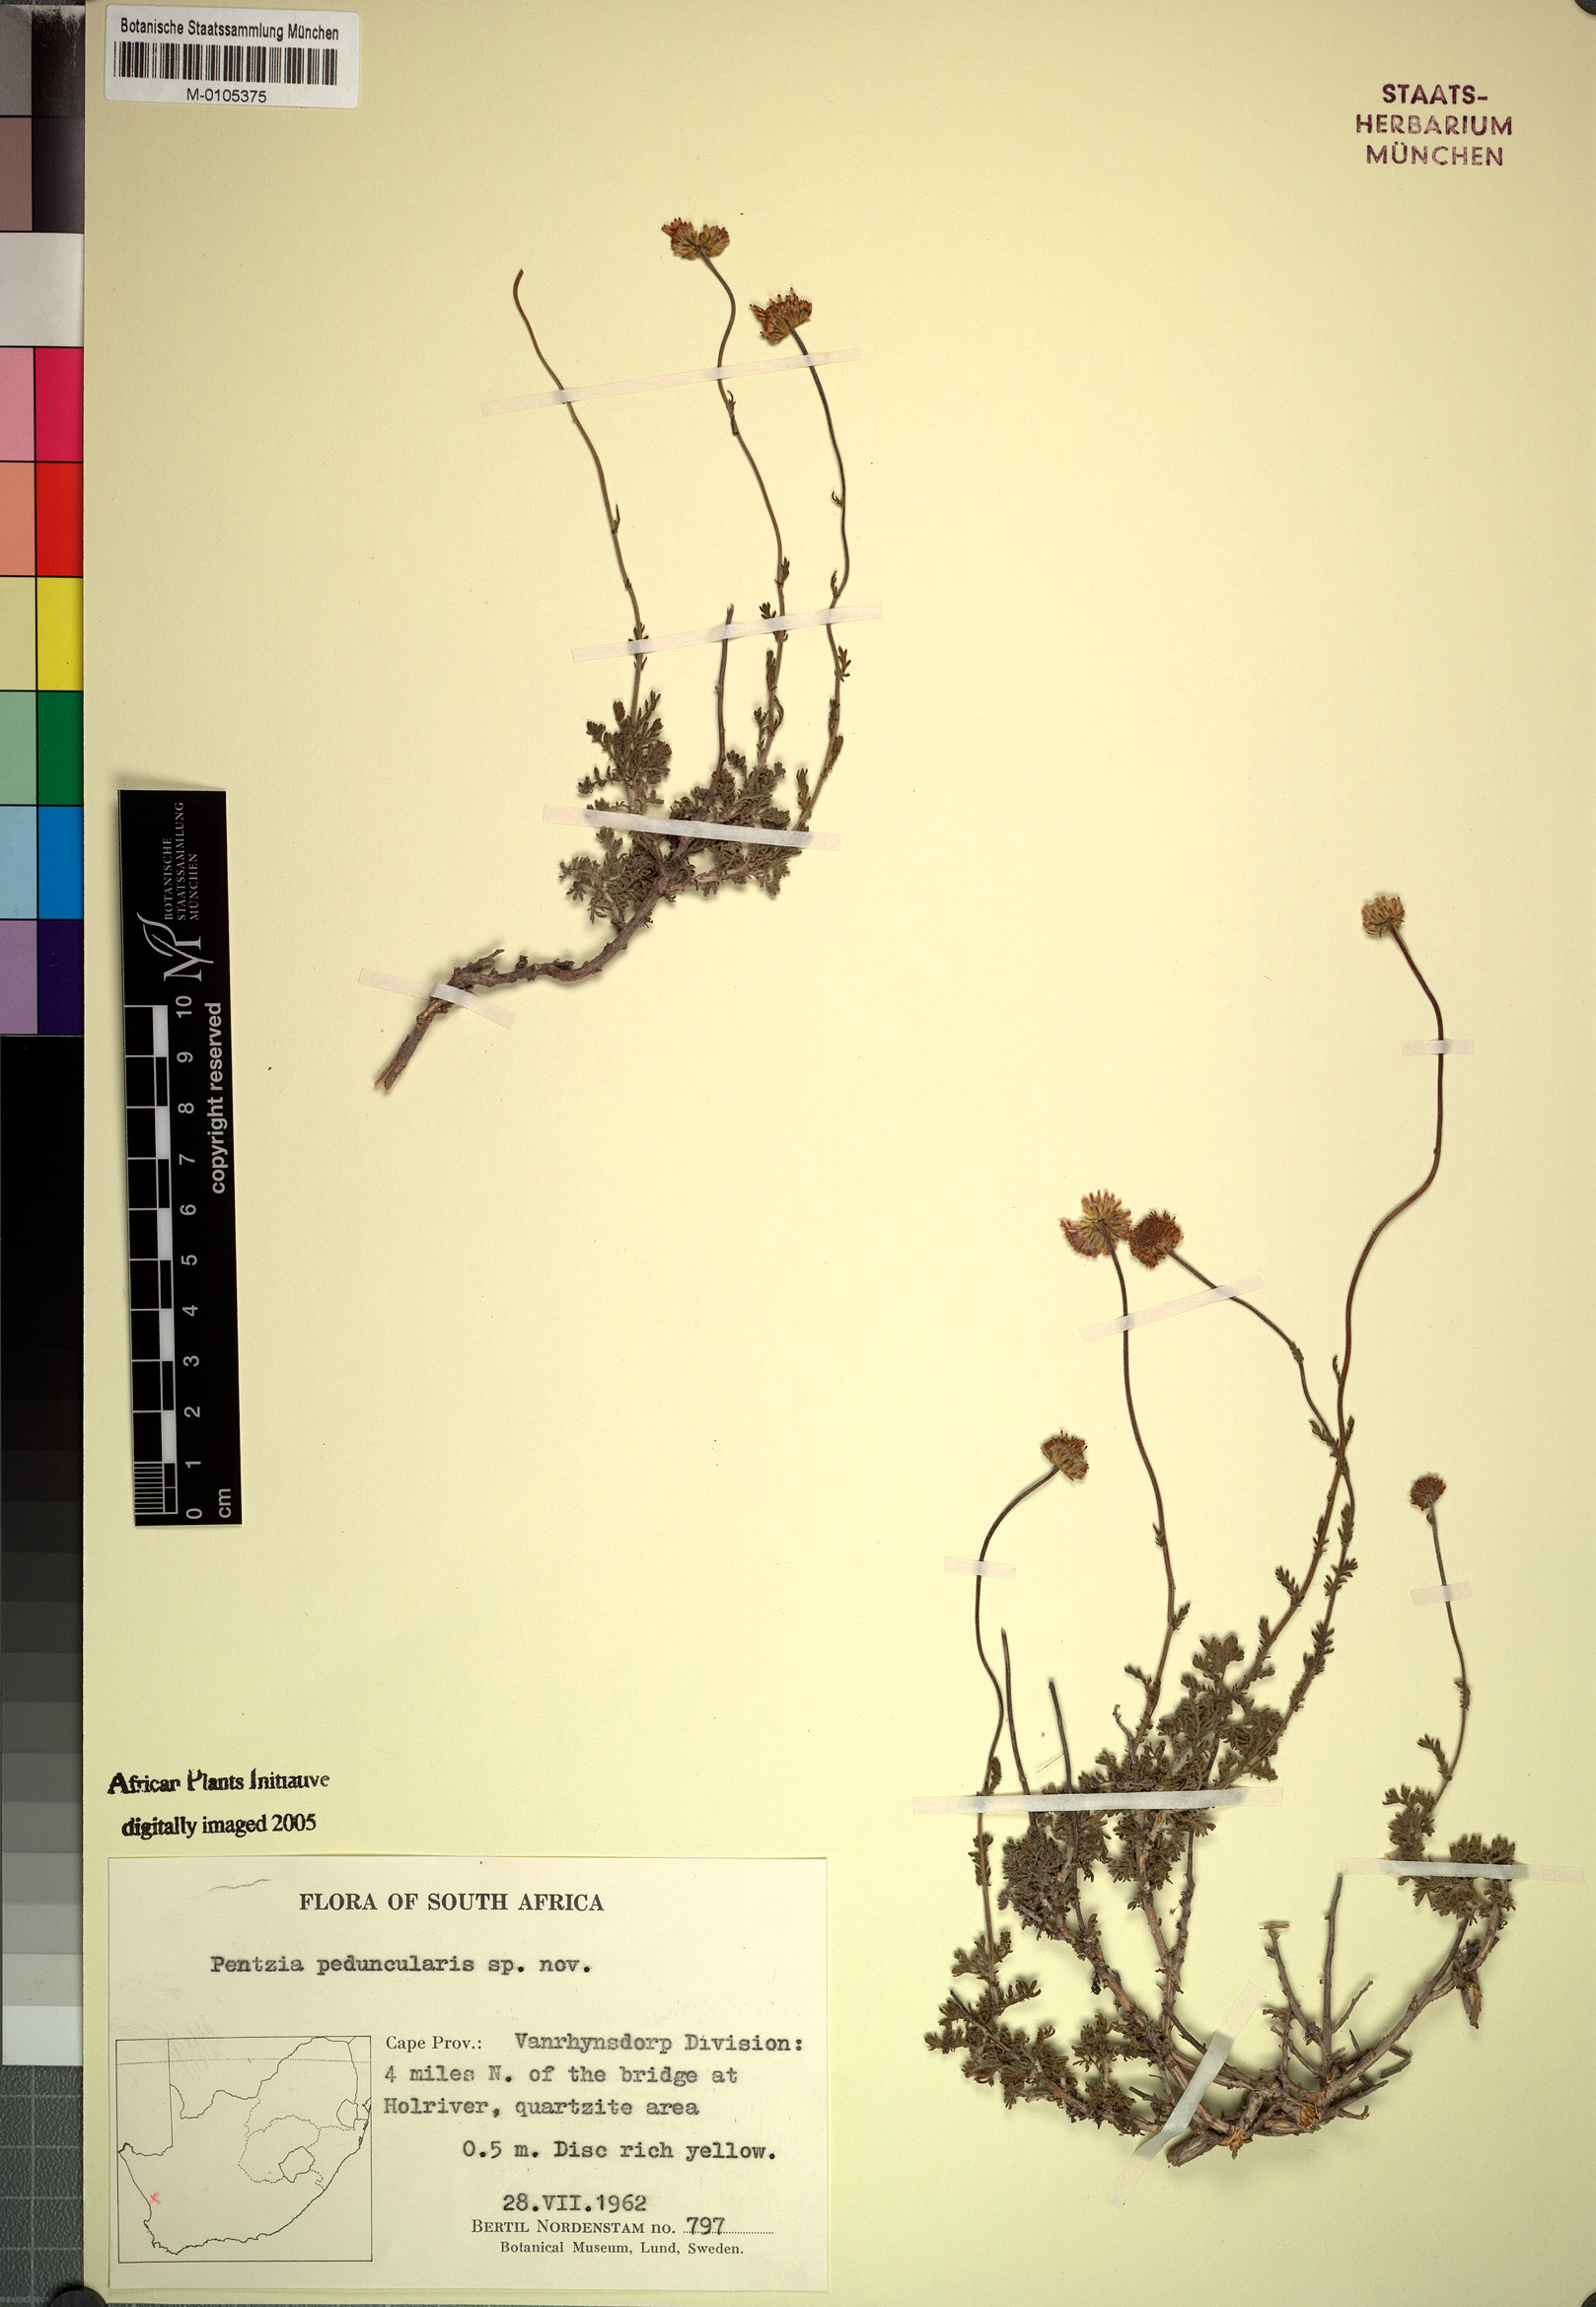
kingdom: Plantae
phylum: Tracheophyta
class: Magnoliopsida
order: Asterales
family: Asteraceae
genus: Pentzia
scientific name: Pentzia peduncularis
